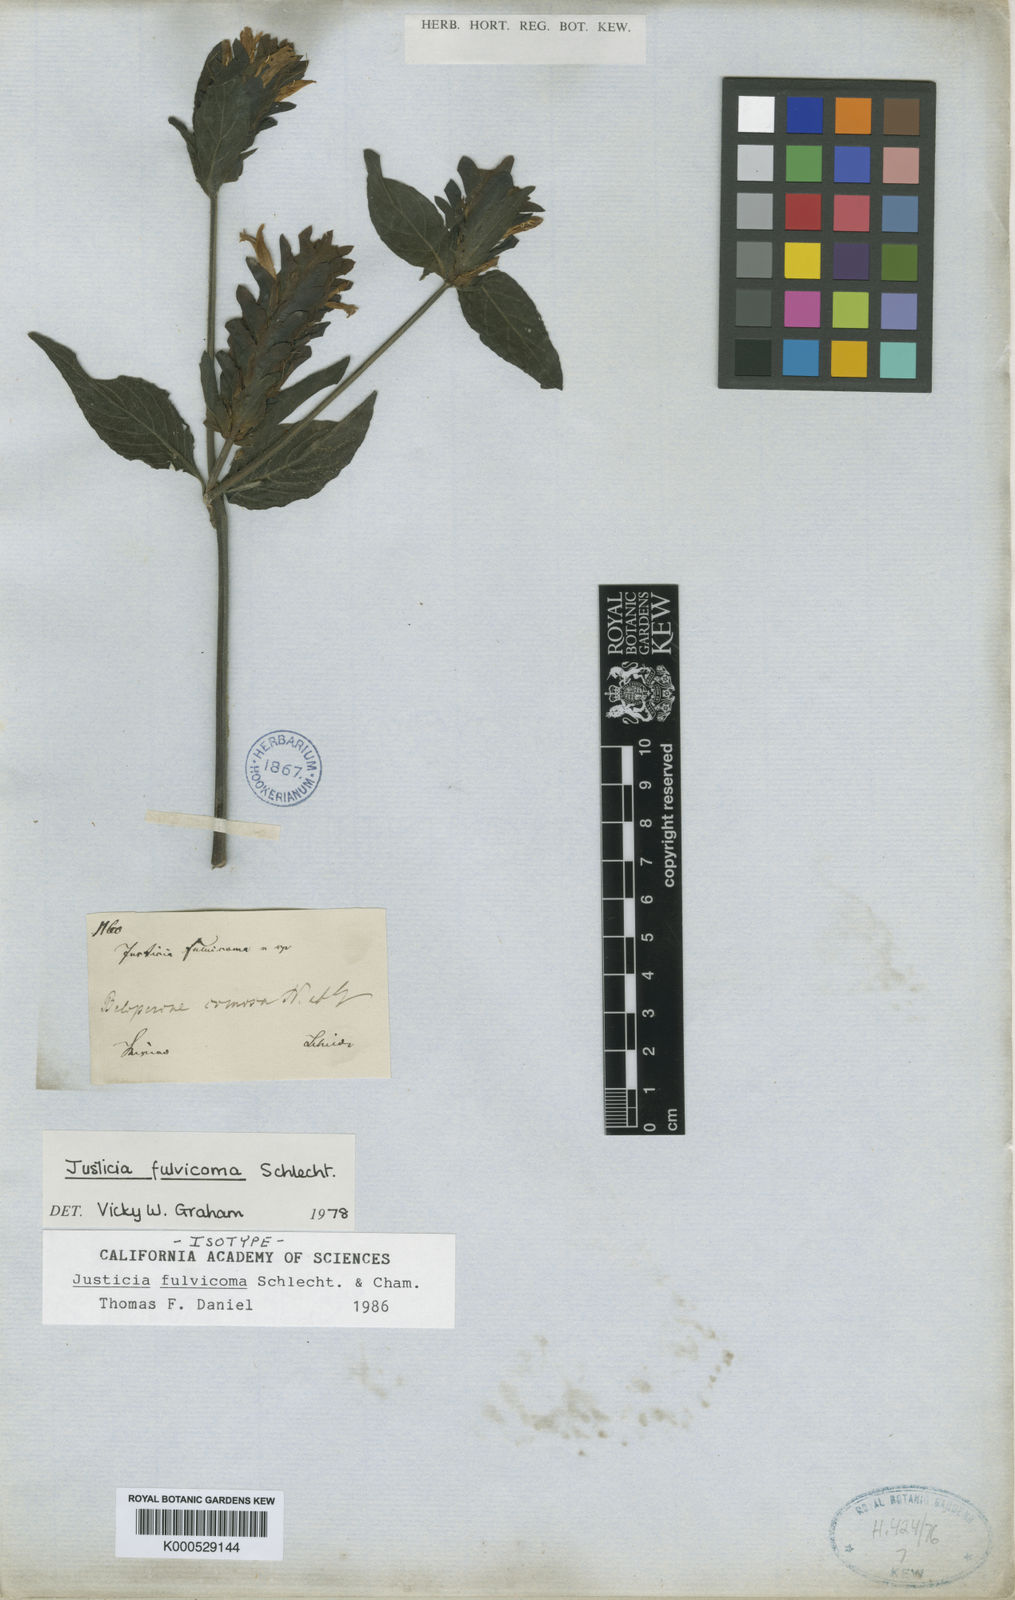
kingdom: Plantae
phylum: Tracheophyta
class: Magnoliopsida
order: Lamiales
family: Acanthaceae
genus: Justicia
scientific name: Justicia fulvicoma
